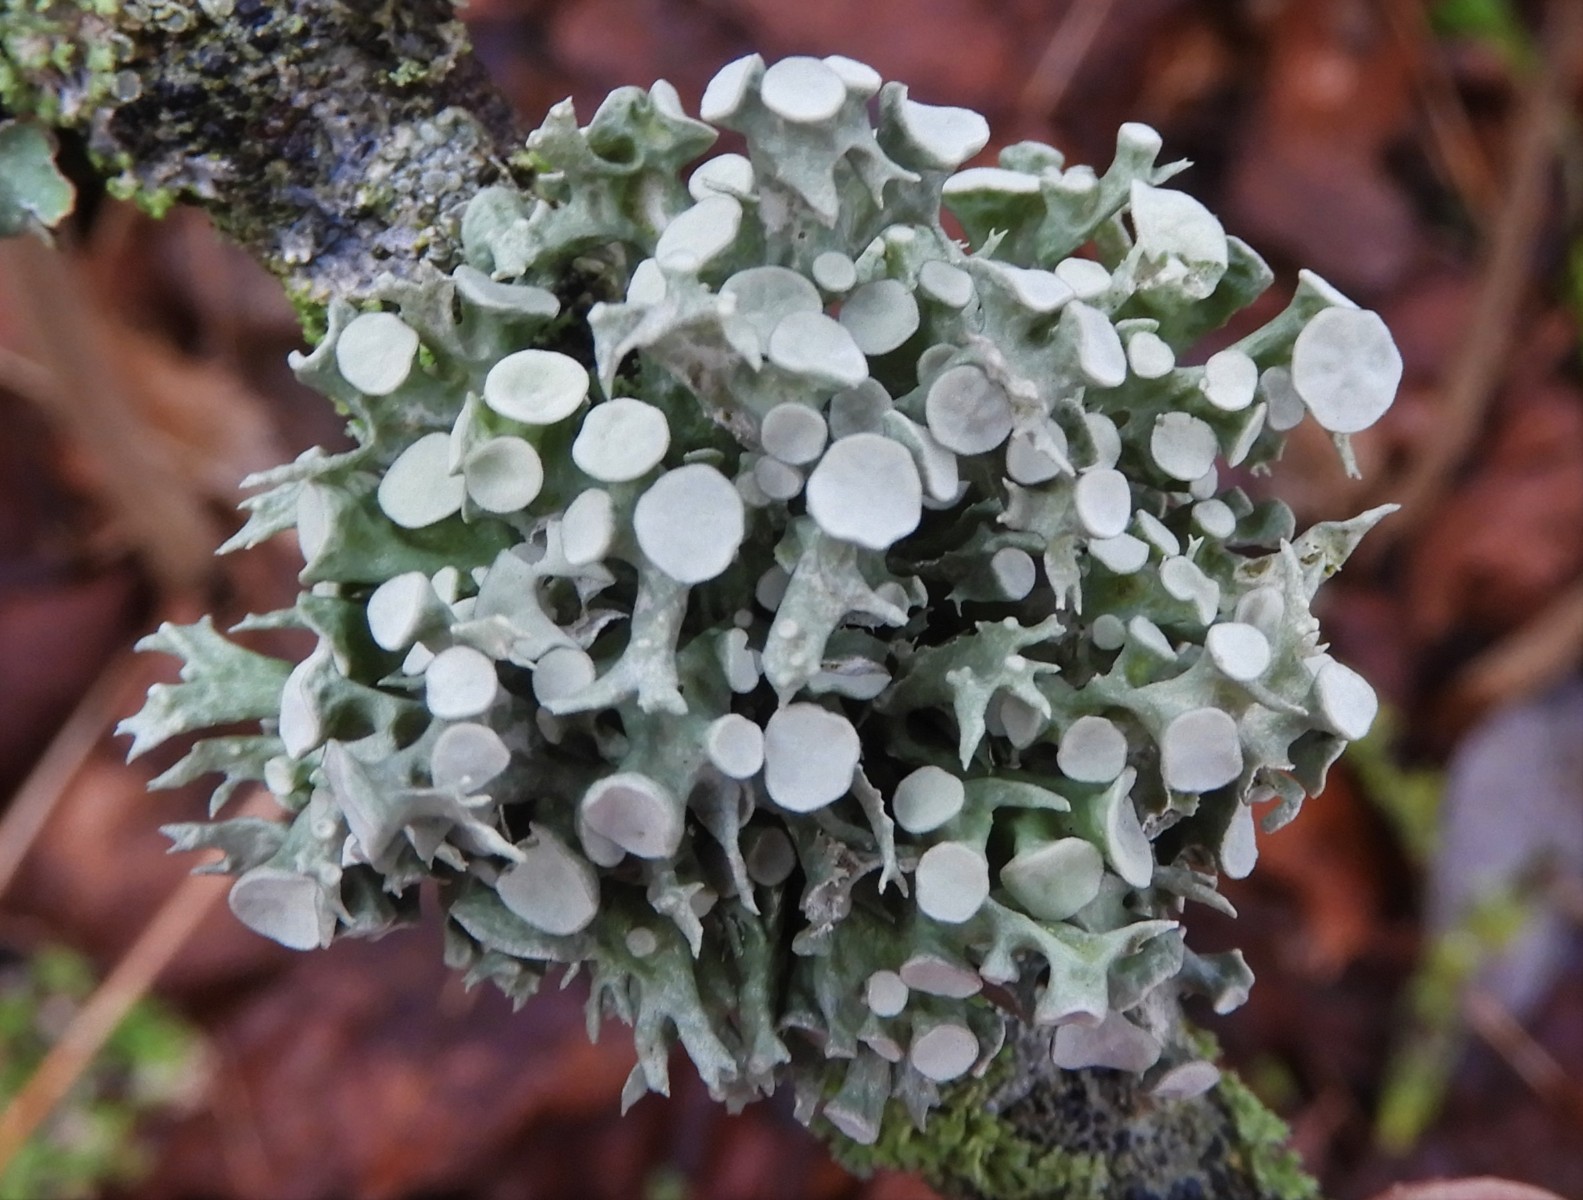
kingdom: Fungi
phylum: Ascomycota
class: Lecanoromycetes
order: Lecanorales
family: Ramalinaceae
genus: Ramalina
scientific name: Ramalina fastigiata
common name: tue-grenlav
